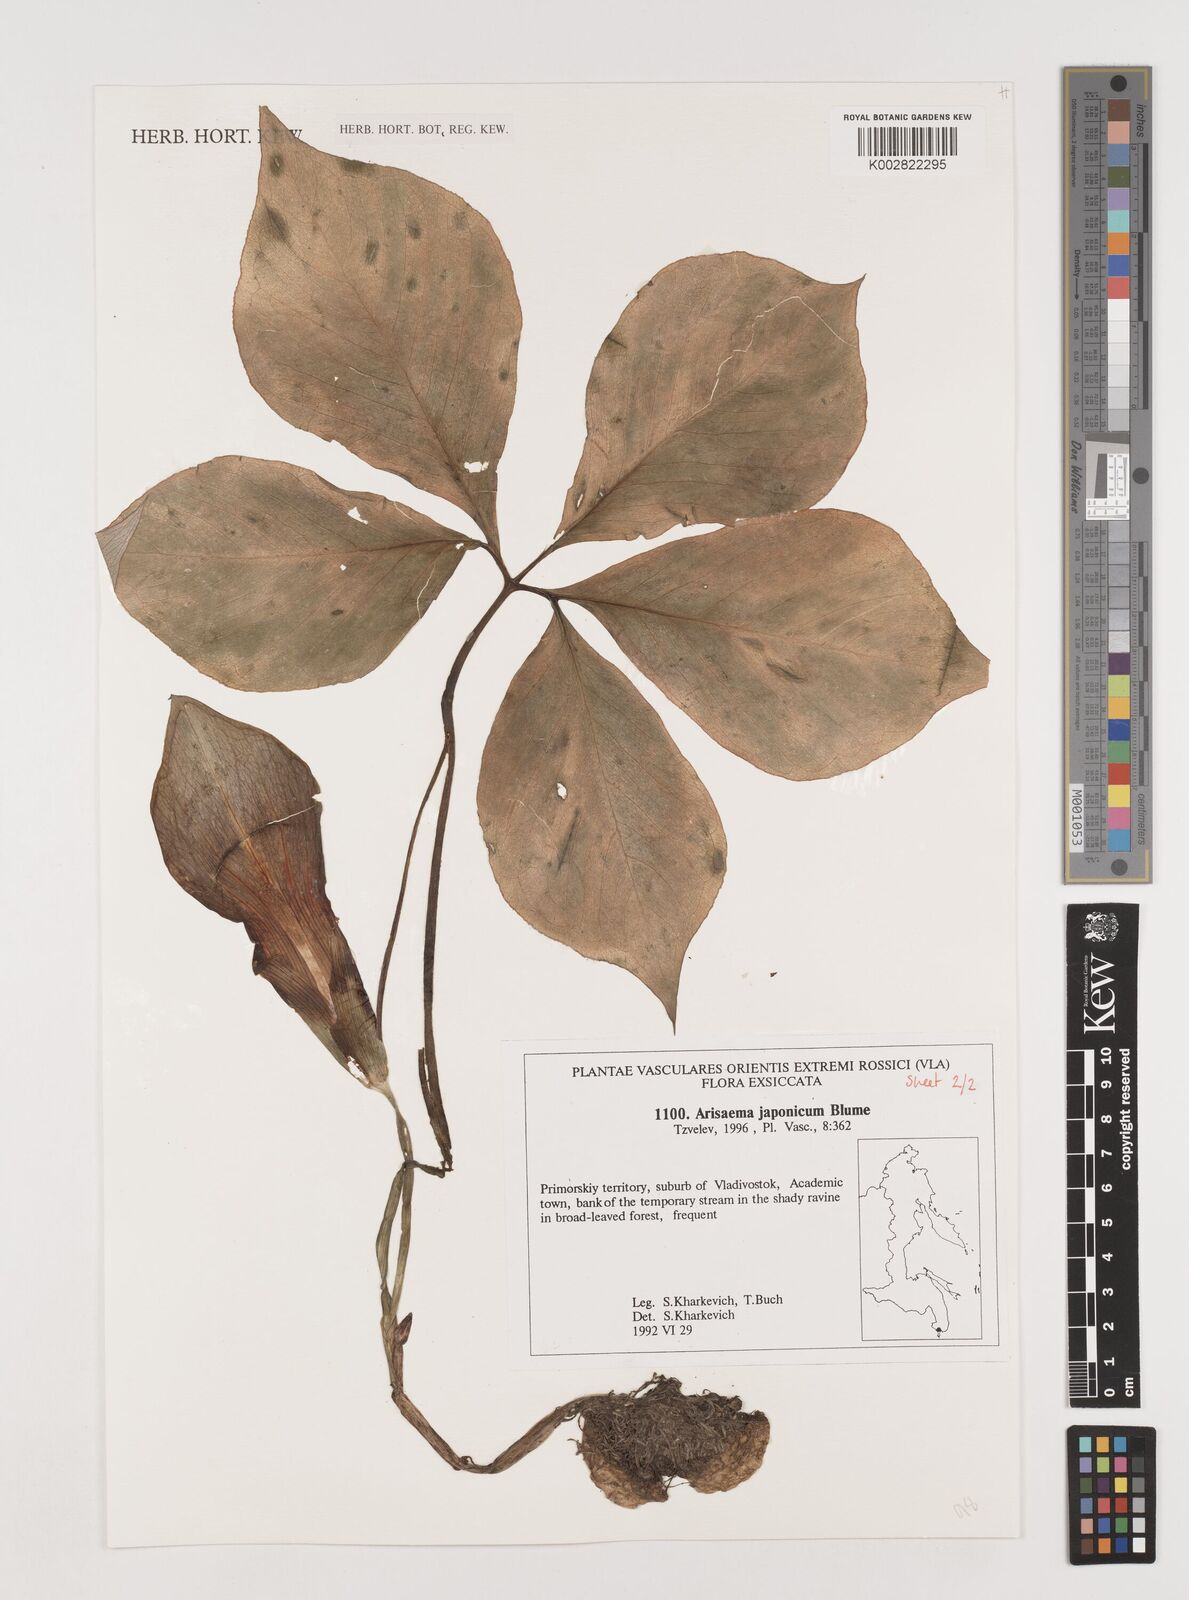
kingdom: Plantae
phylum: Tracheophyta
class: Liliopsida
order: Alismatales
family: Araceae
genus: Arisaema
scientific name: Arisaema japonicum
